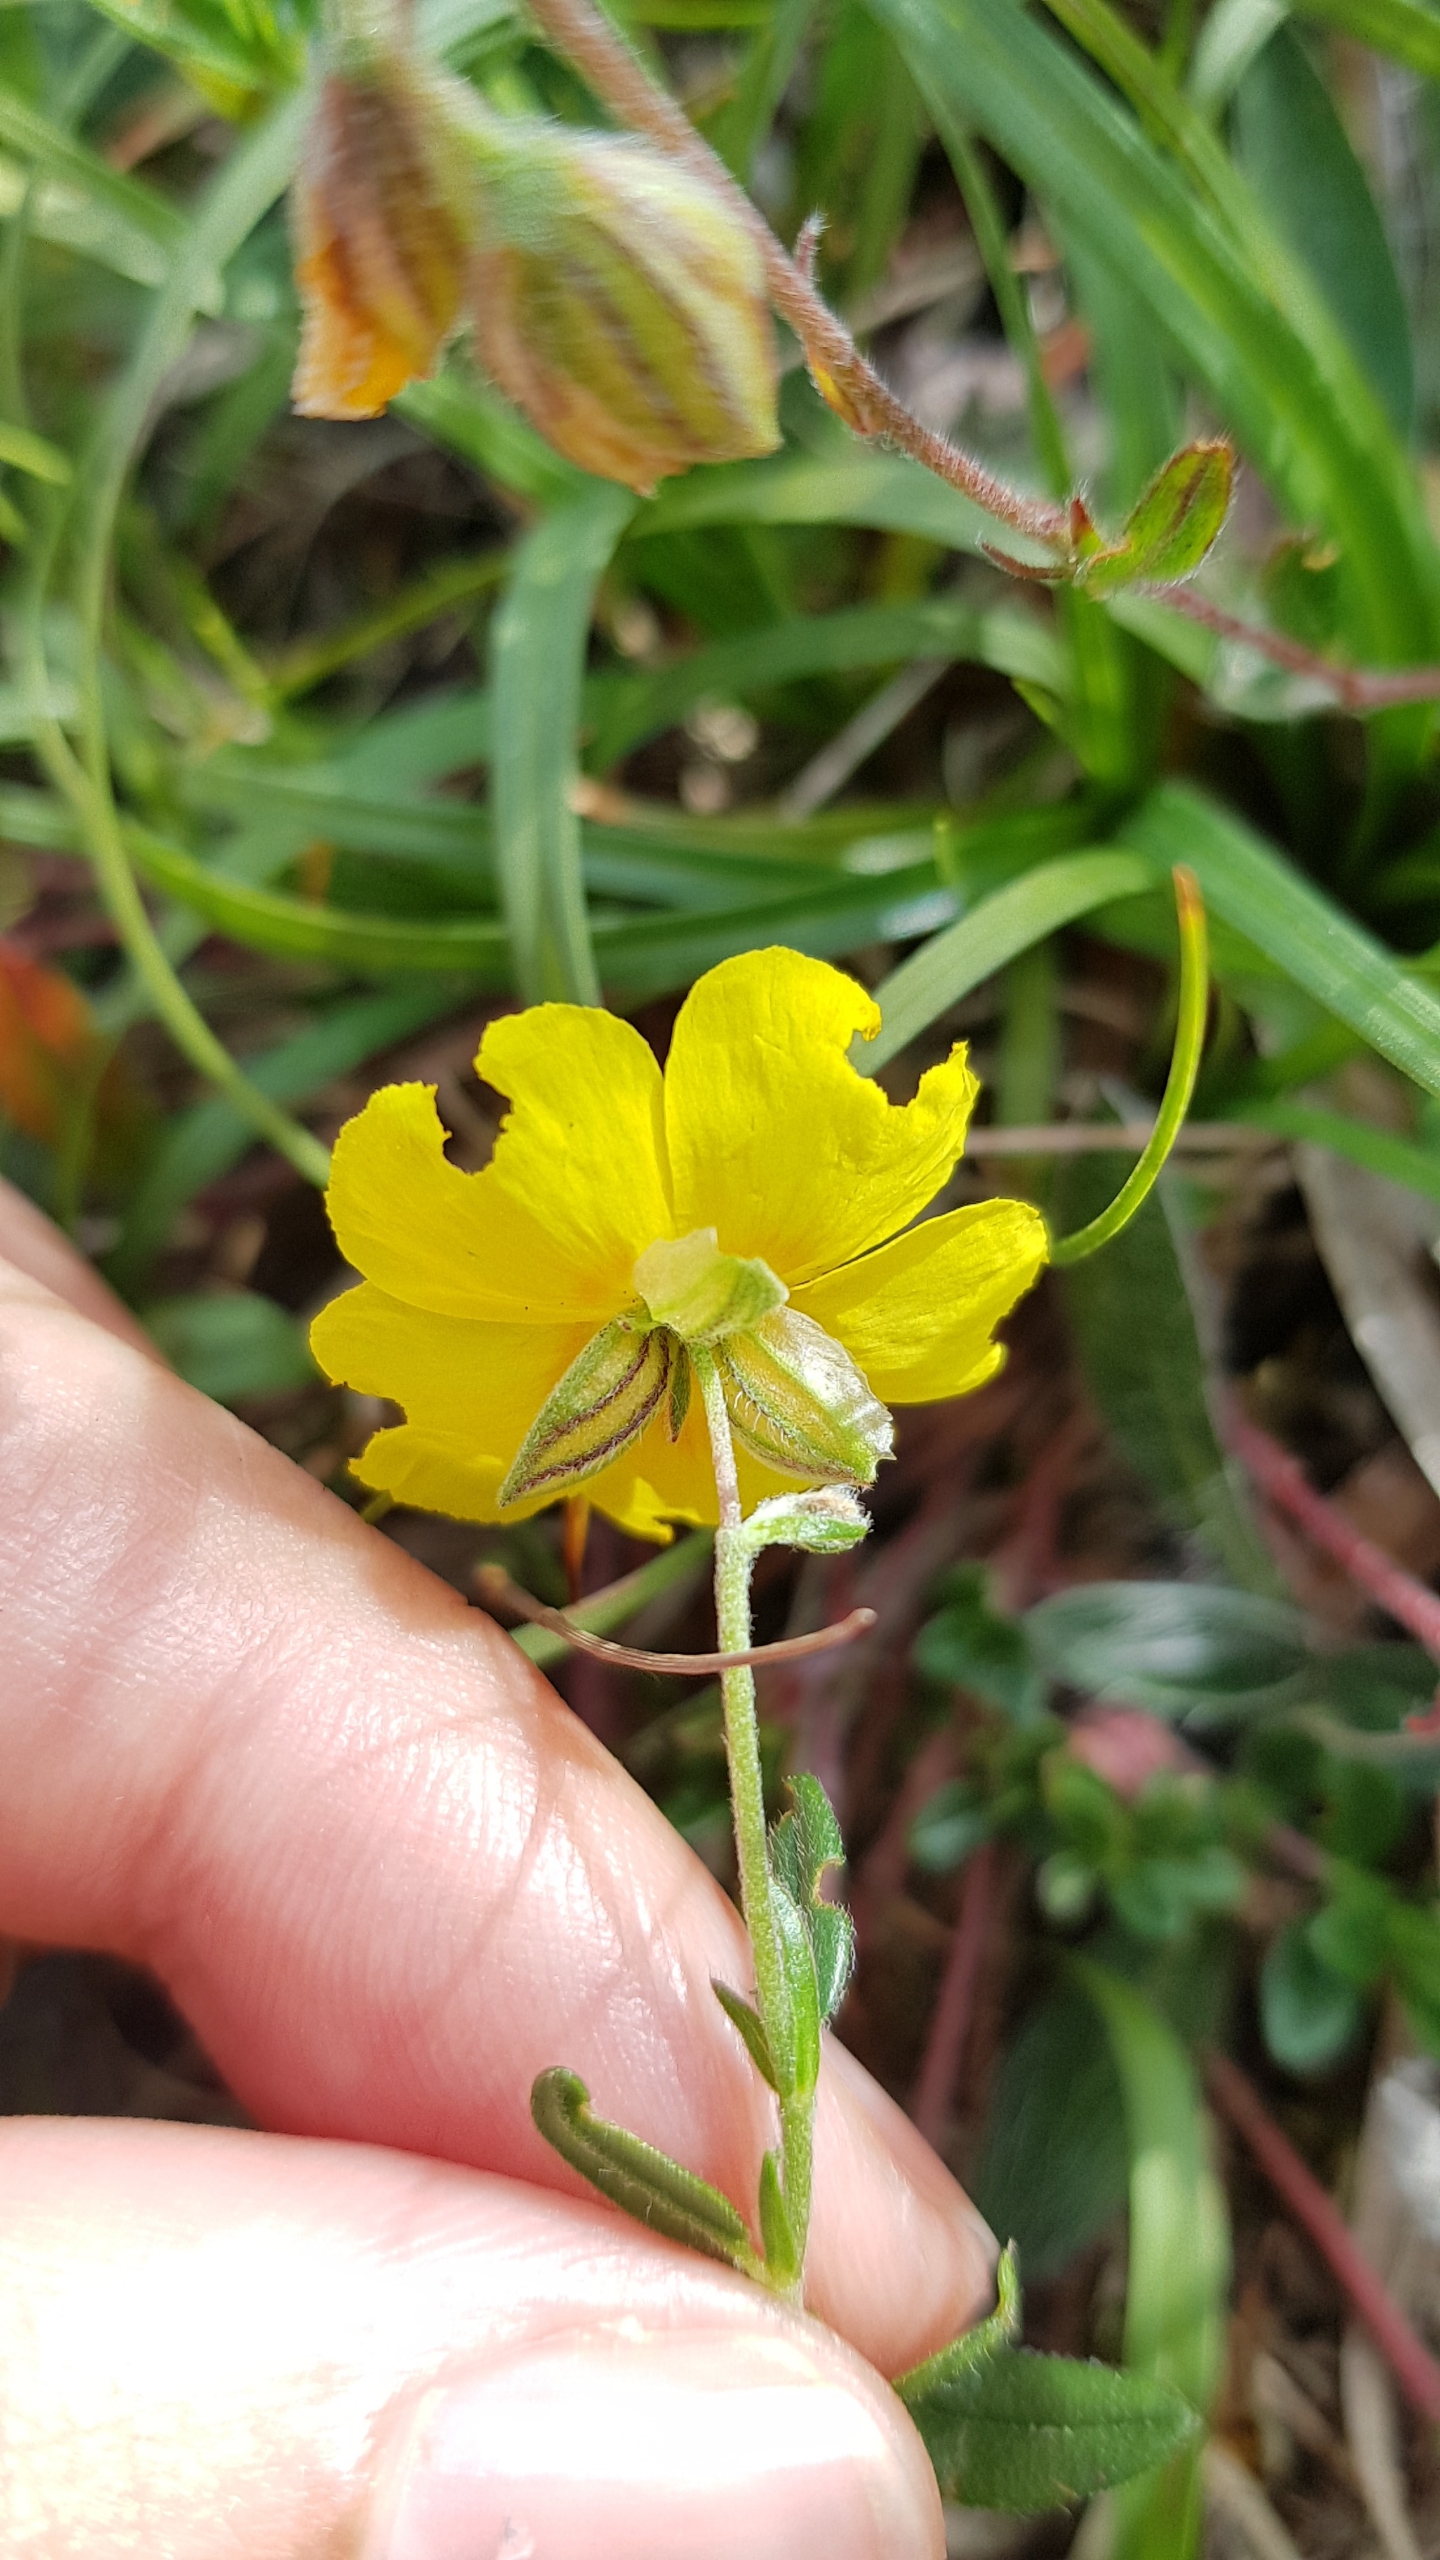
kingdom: Plantae
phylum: Tracheophyta
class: Magnoliopsida
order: Malvales
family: Cistaceae
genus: Helianthemum
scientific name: Helianthemum nummularium
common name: Bakke-soløje
